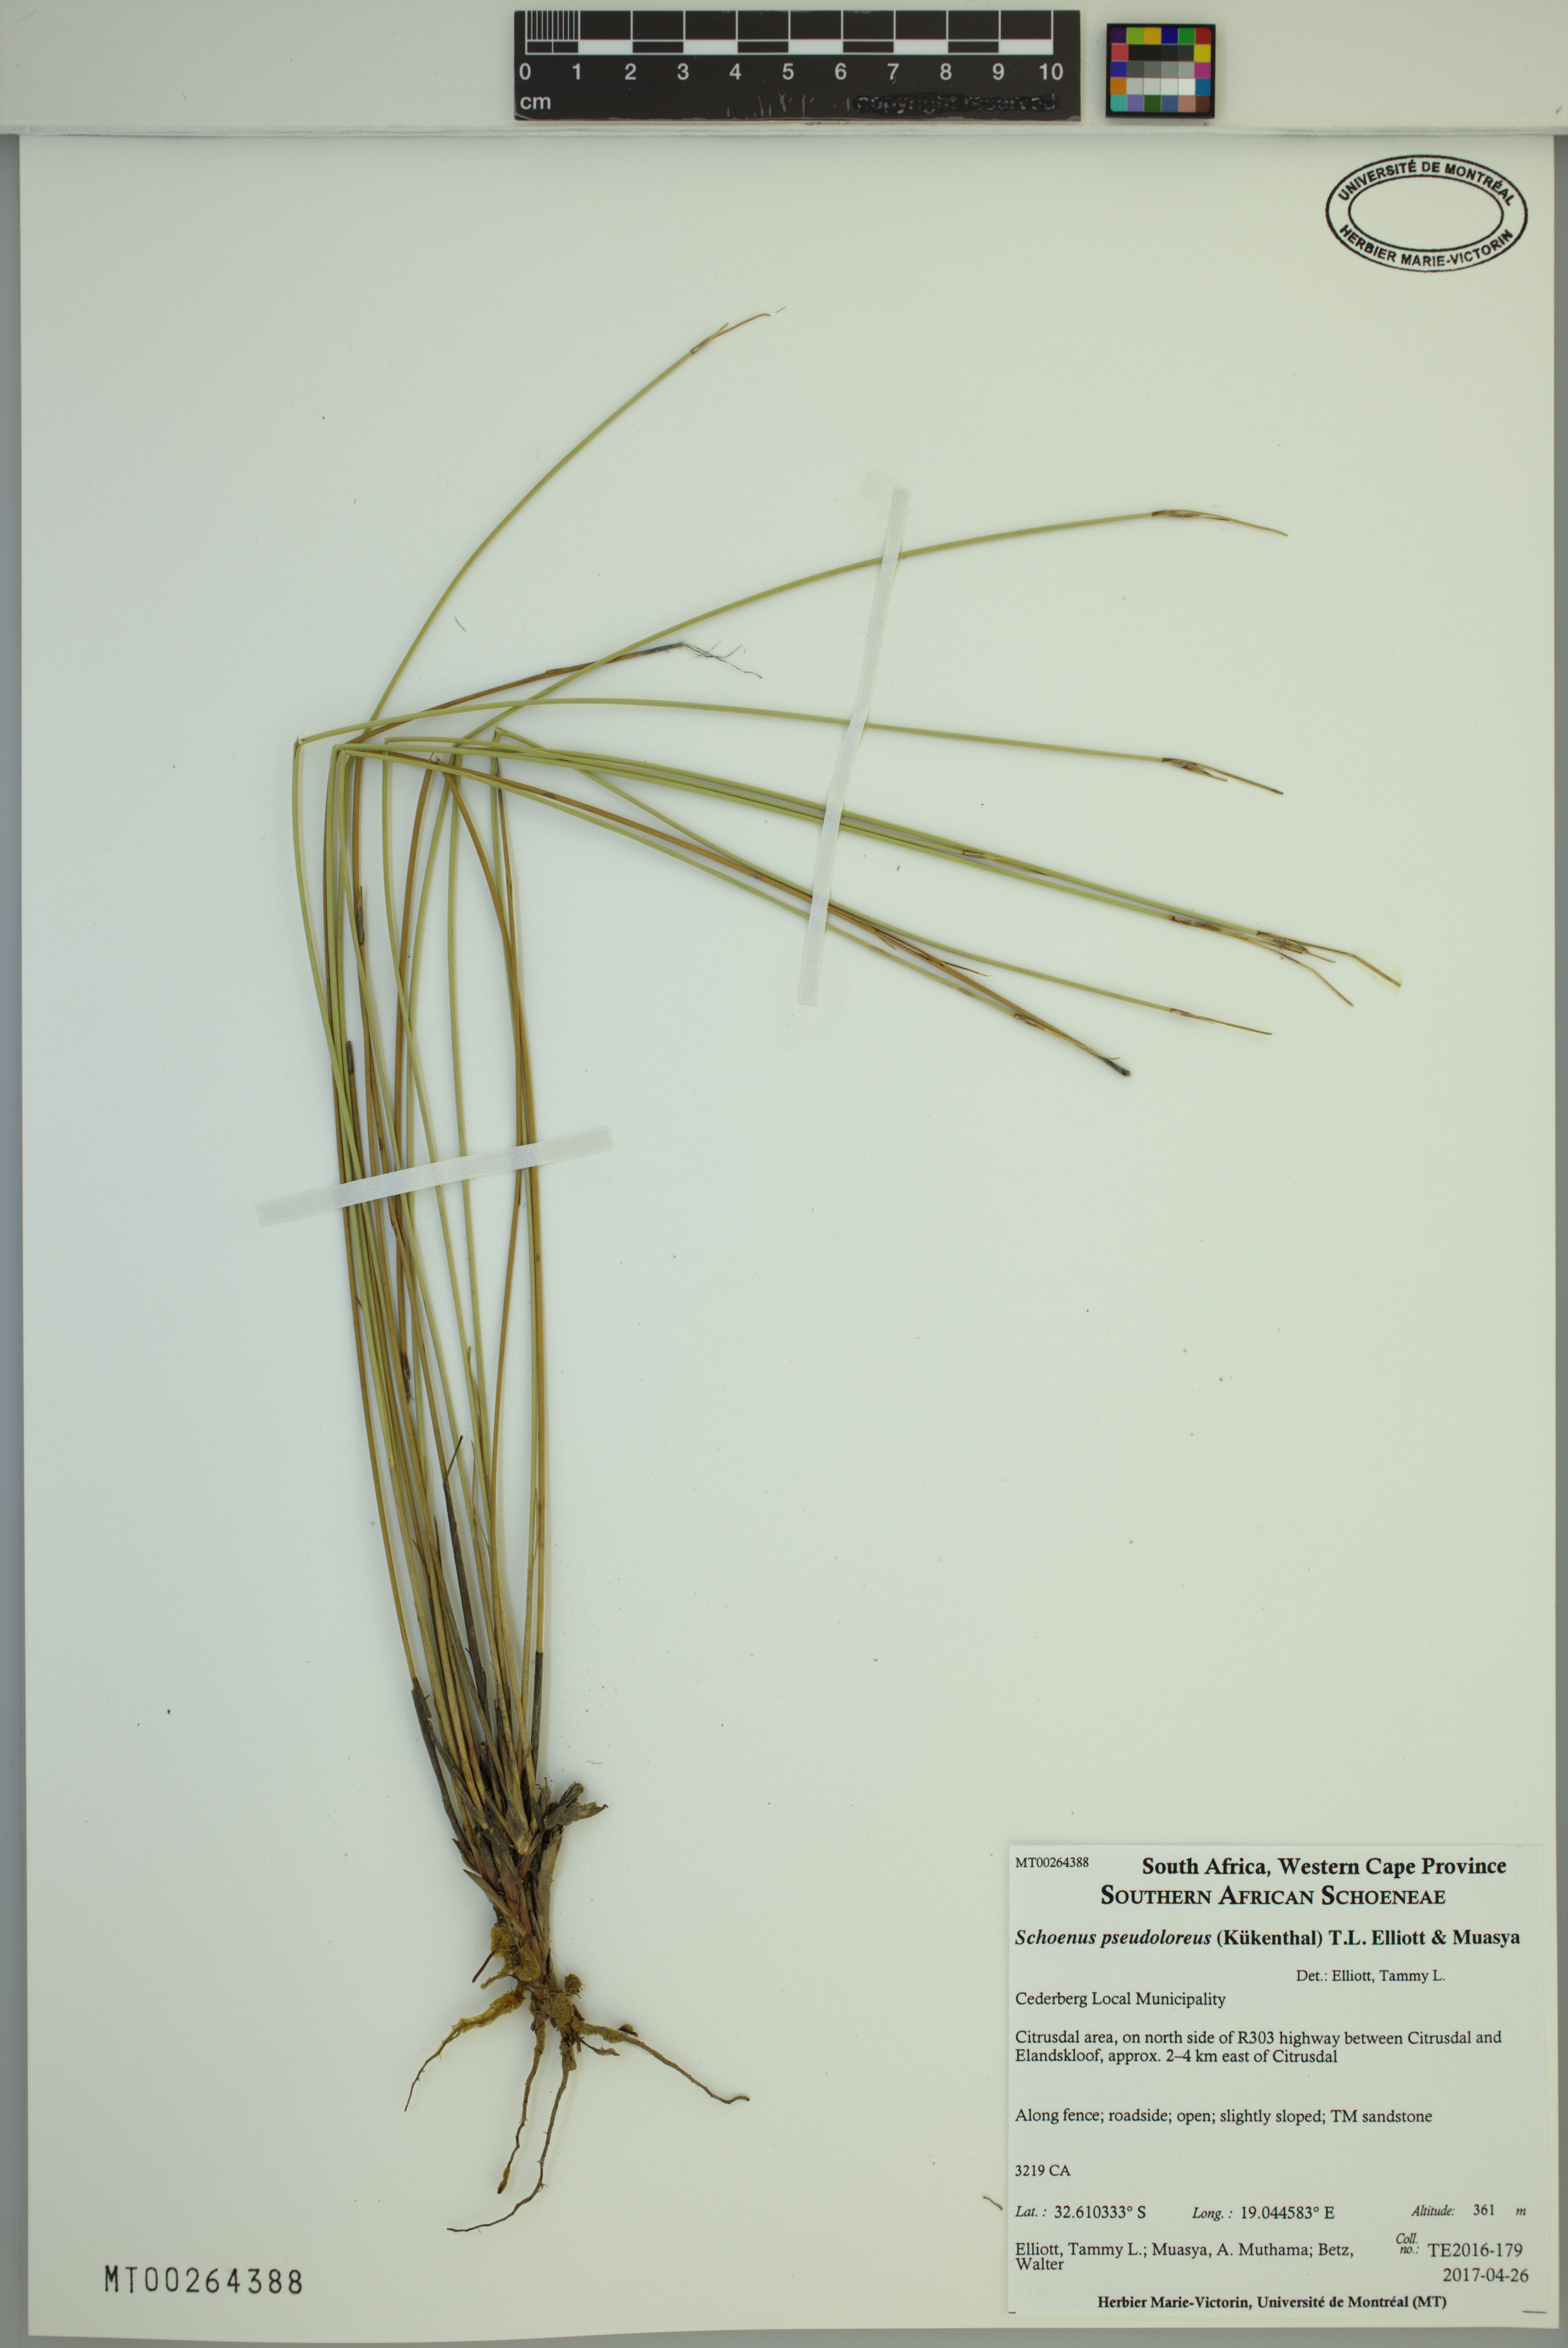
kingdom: Plantae
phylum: Tracheophyta
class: Liliopsida
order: Poales
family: Cyperaceae
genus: Schoenus
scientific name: Schoenus pseudoloreus
